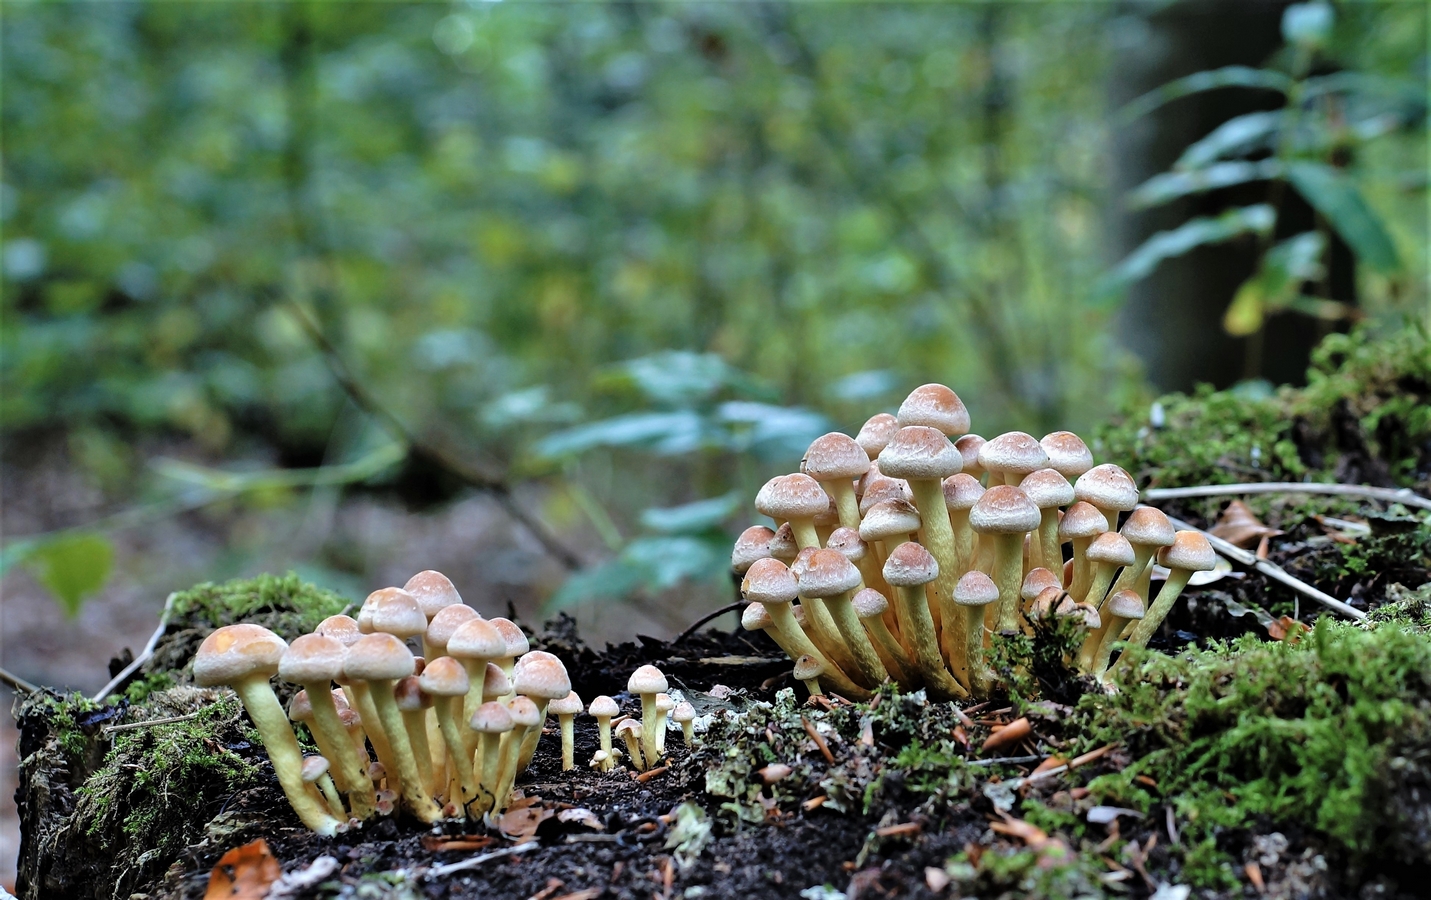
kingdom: Fungi
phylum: Basidiomycota
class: Agaricomycetes
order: Agaricales
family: Strophariaceae
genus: Hypholoma
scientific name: Hypholoma fasciculare
